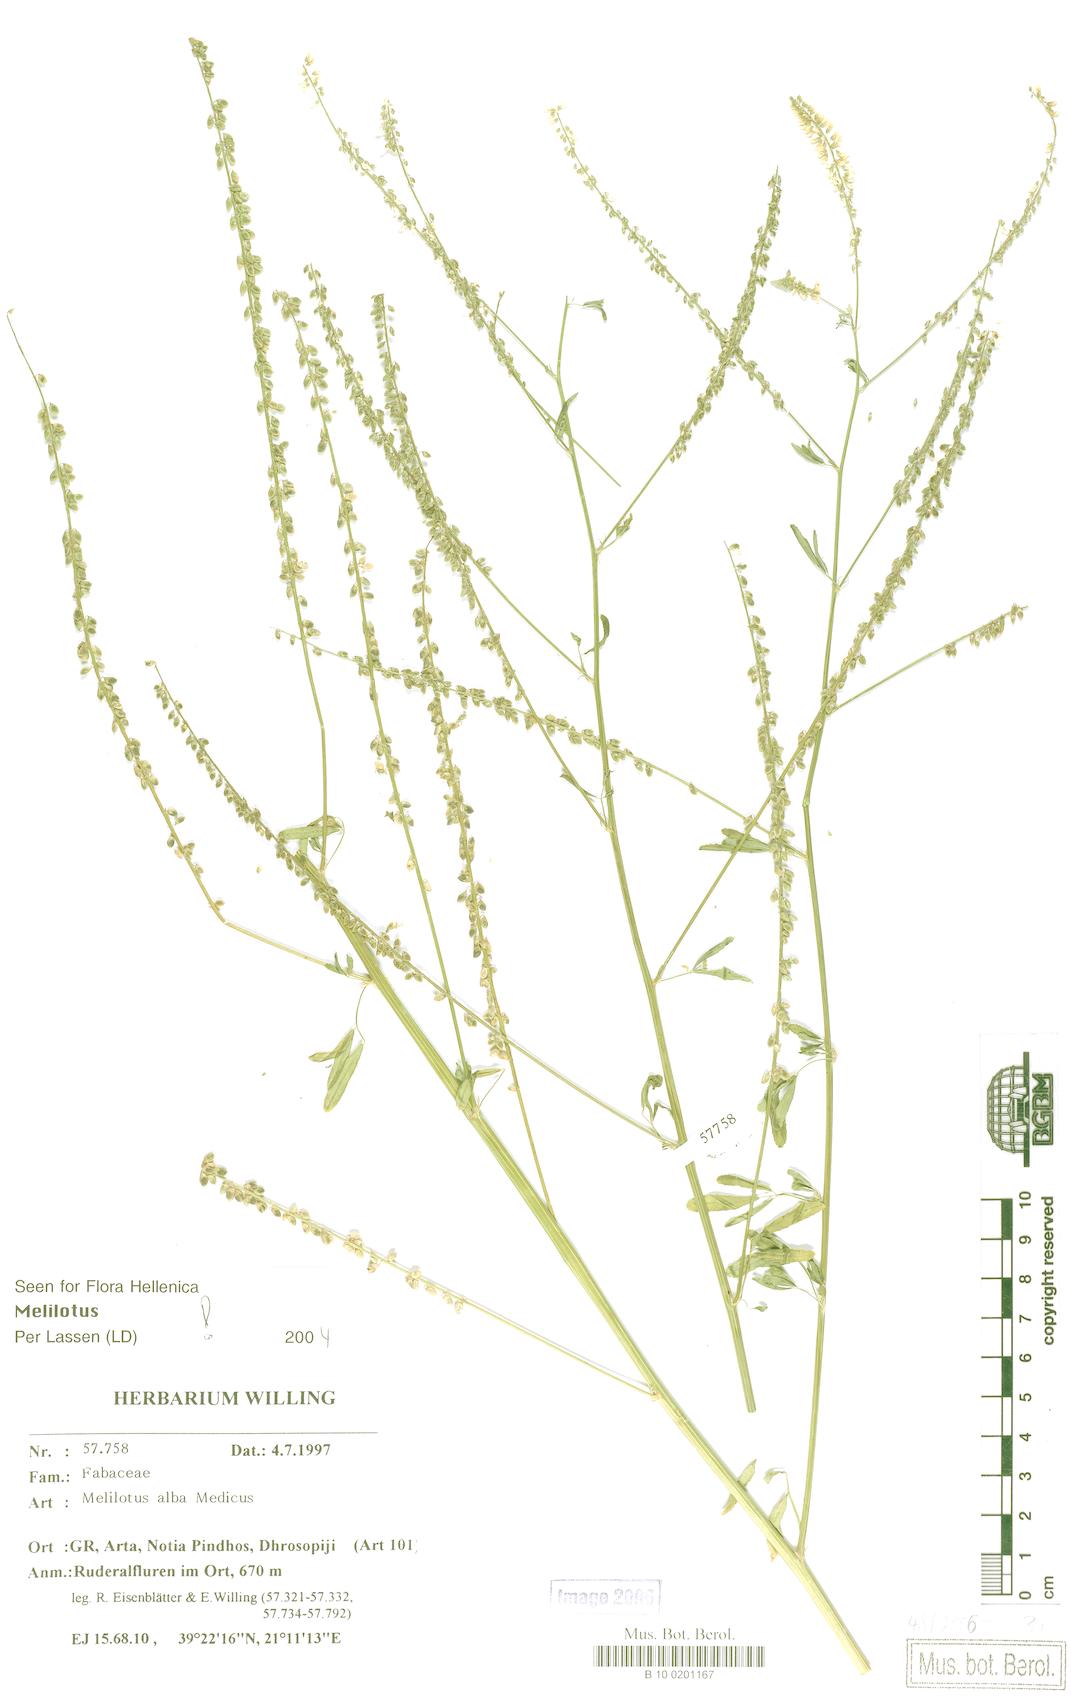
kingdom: Plantae
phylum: Tracheophyta
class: Magnoliopsida
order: Fabales
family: Fabaceae
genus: Melilotus
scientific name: Melilotus albus
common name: White melilot
